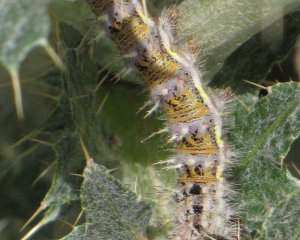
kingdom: Animalia
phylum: Arthropoda
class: Insecta
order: Lepidoptera
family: Nymphalidae
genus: Vanessa
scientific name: Vanessa cardui
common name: Painted Lady
